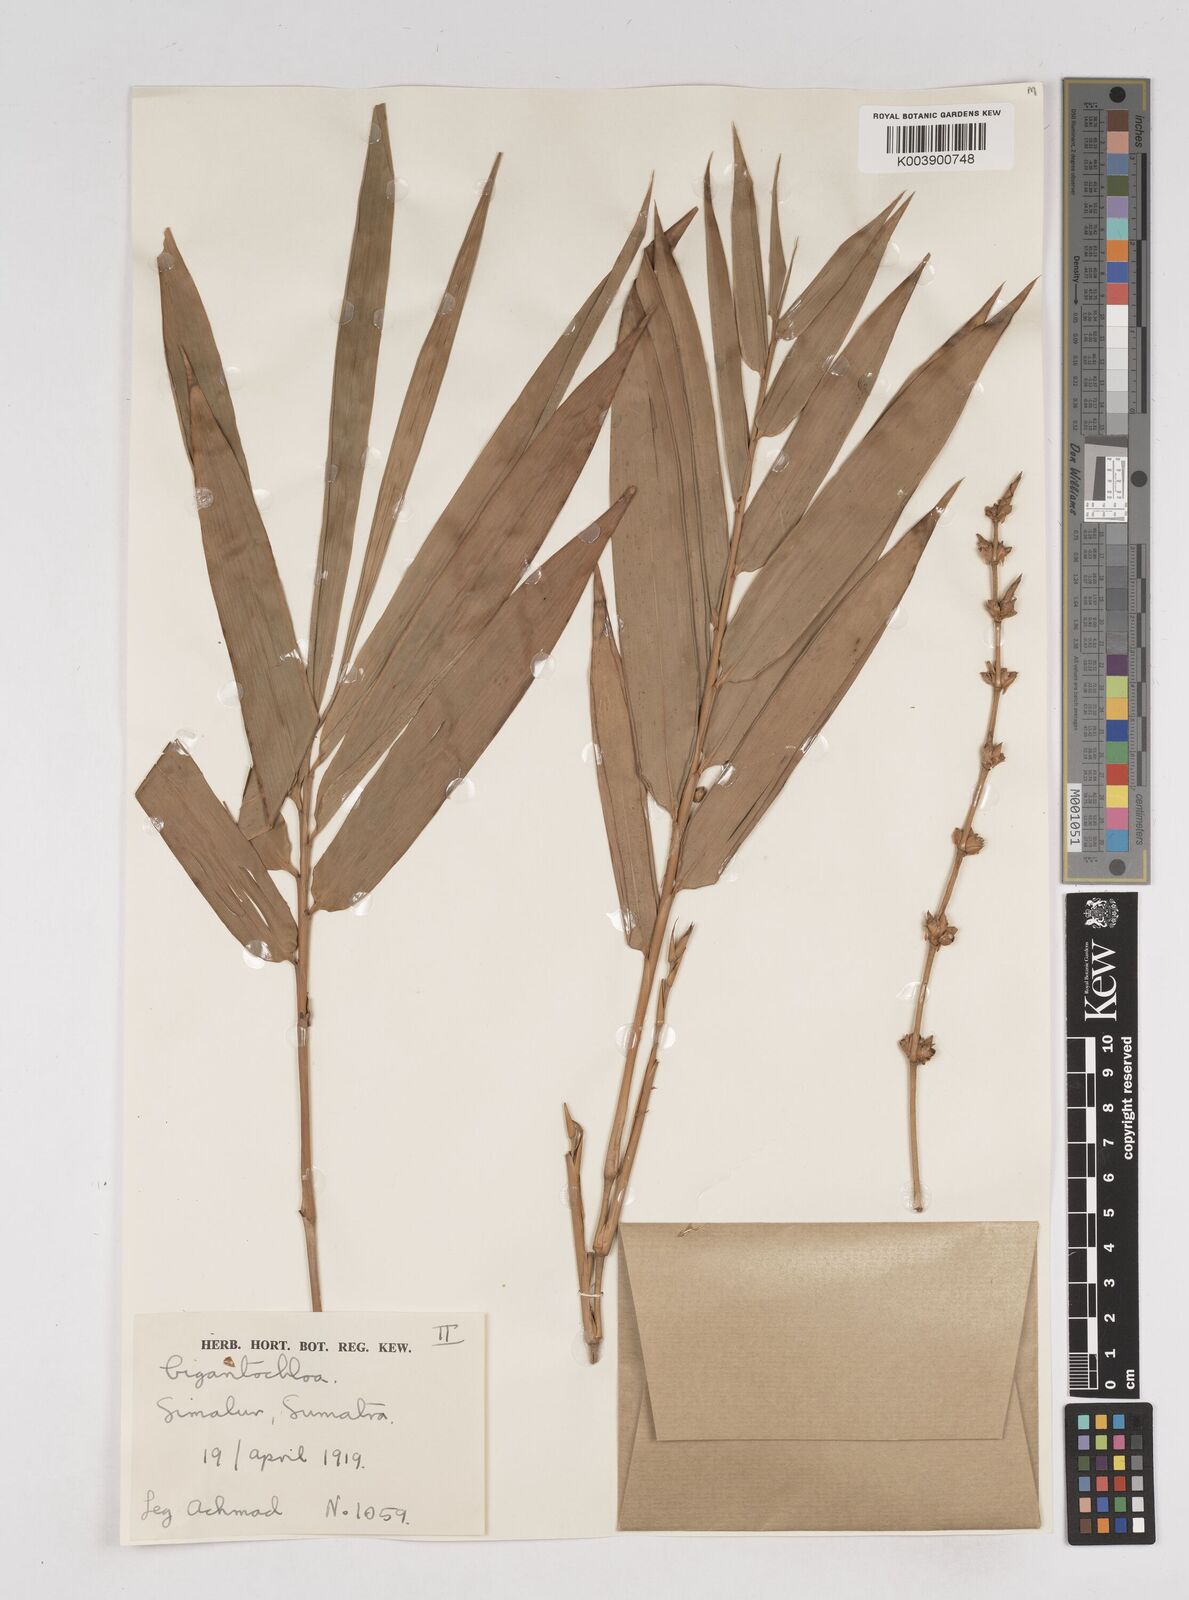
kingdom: Plantae
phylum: Tracheophyta
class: Liliopsida
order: Poales
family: Poaceae
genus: Gigantochloa
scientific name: Gigantochloa
